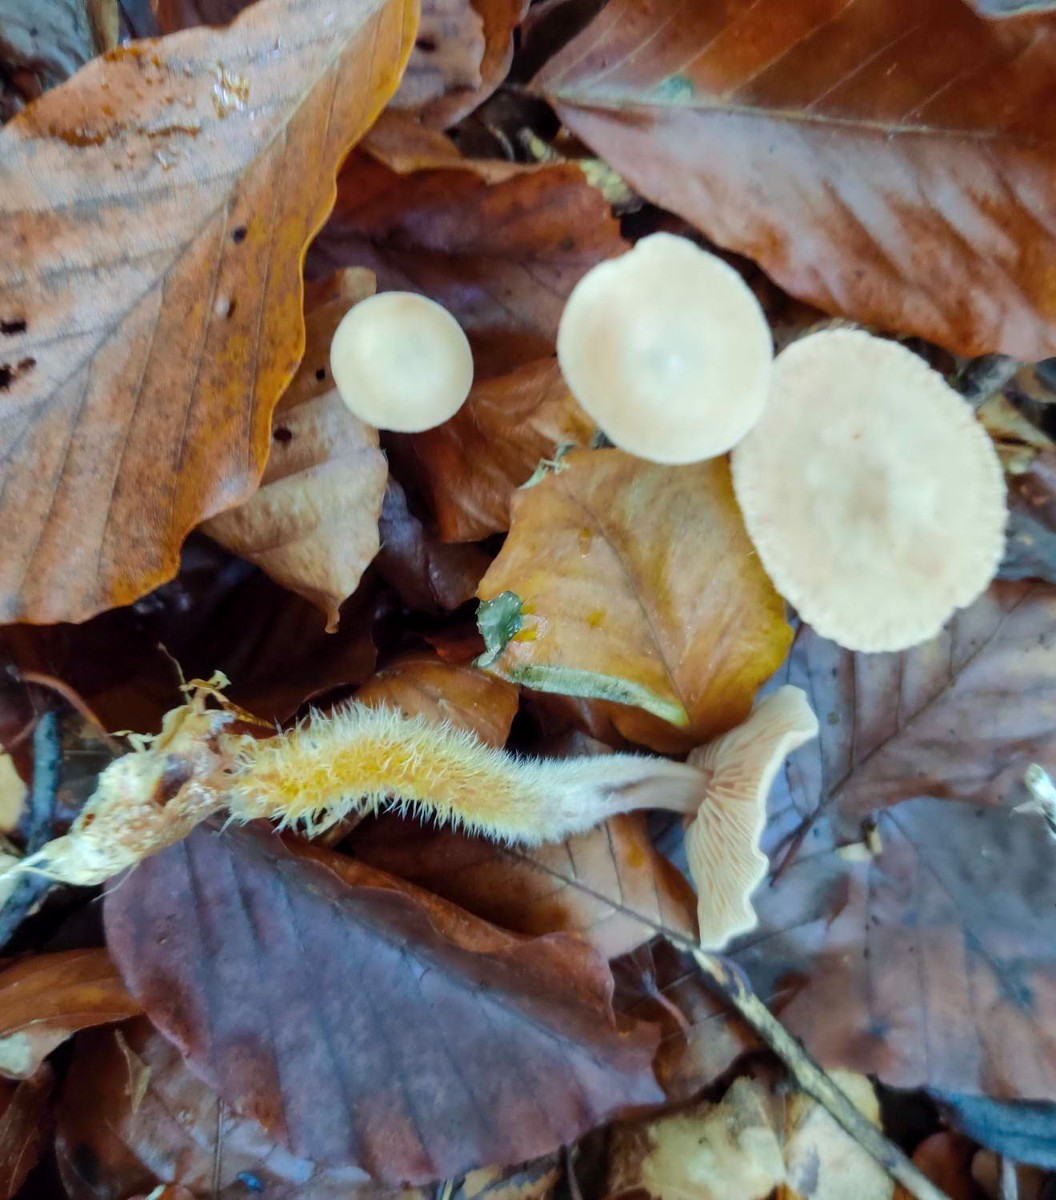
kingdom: Fungi
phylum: Basidiomycota
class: Agaricomycetes
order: Agaricales
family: Omphalotaceae
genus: Gymnopus
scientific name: Gymnopus fagiphilus
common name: bøgeløv-fladhat
